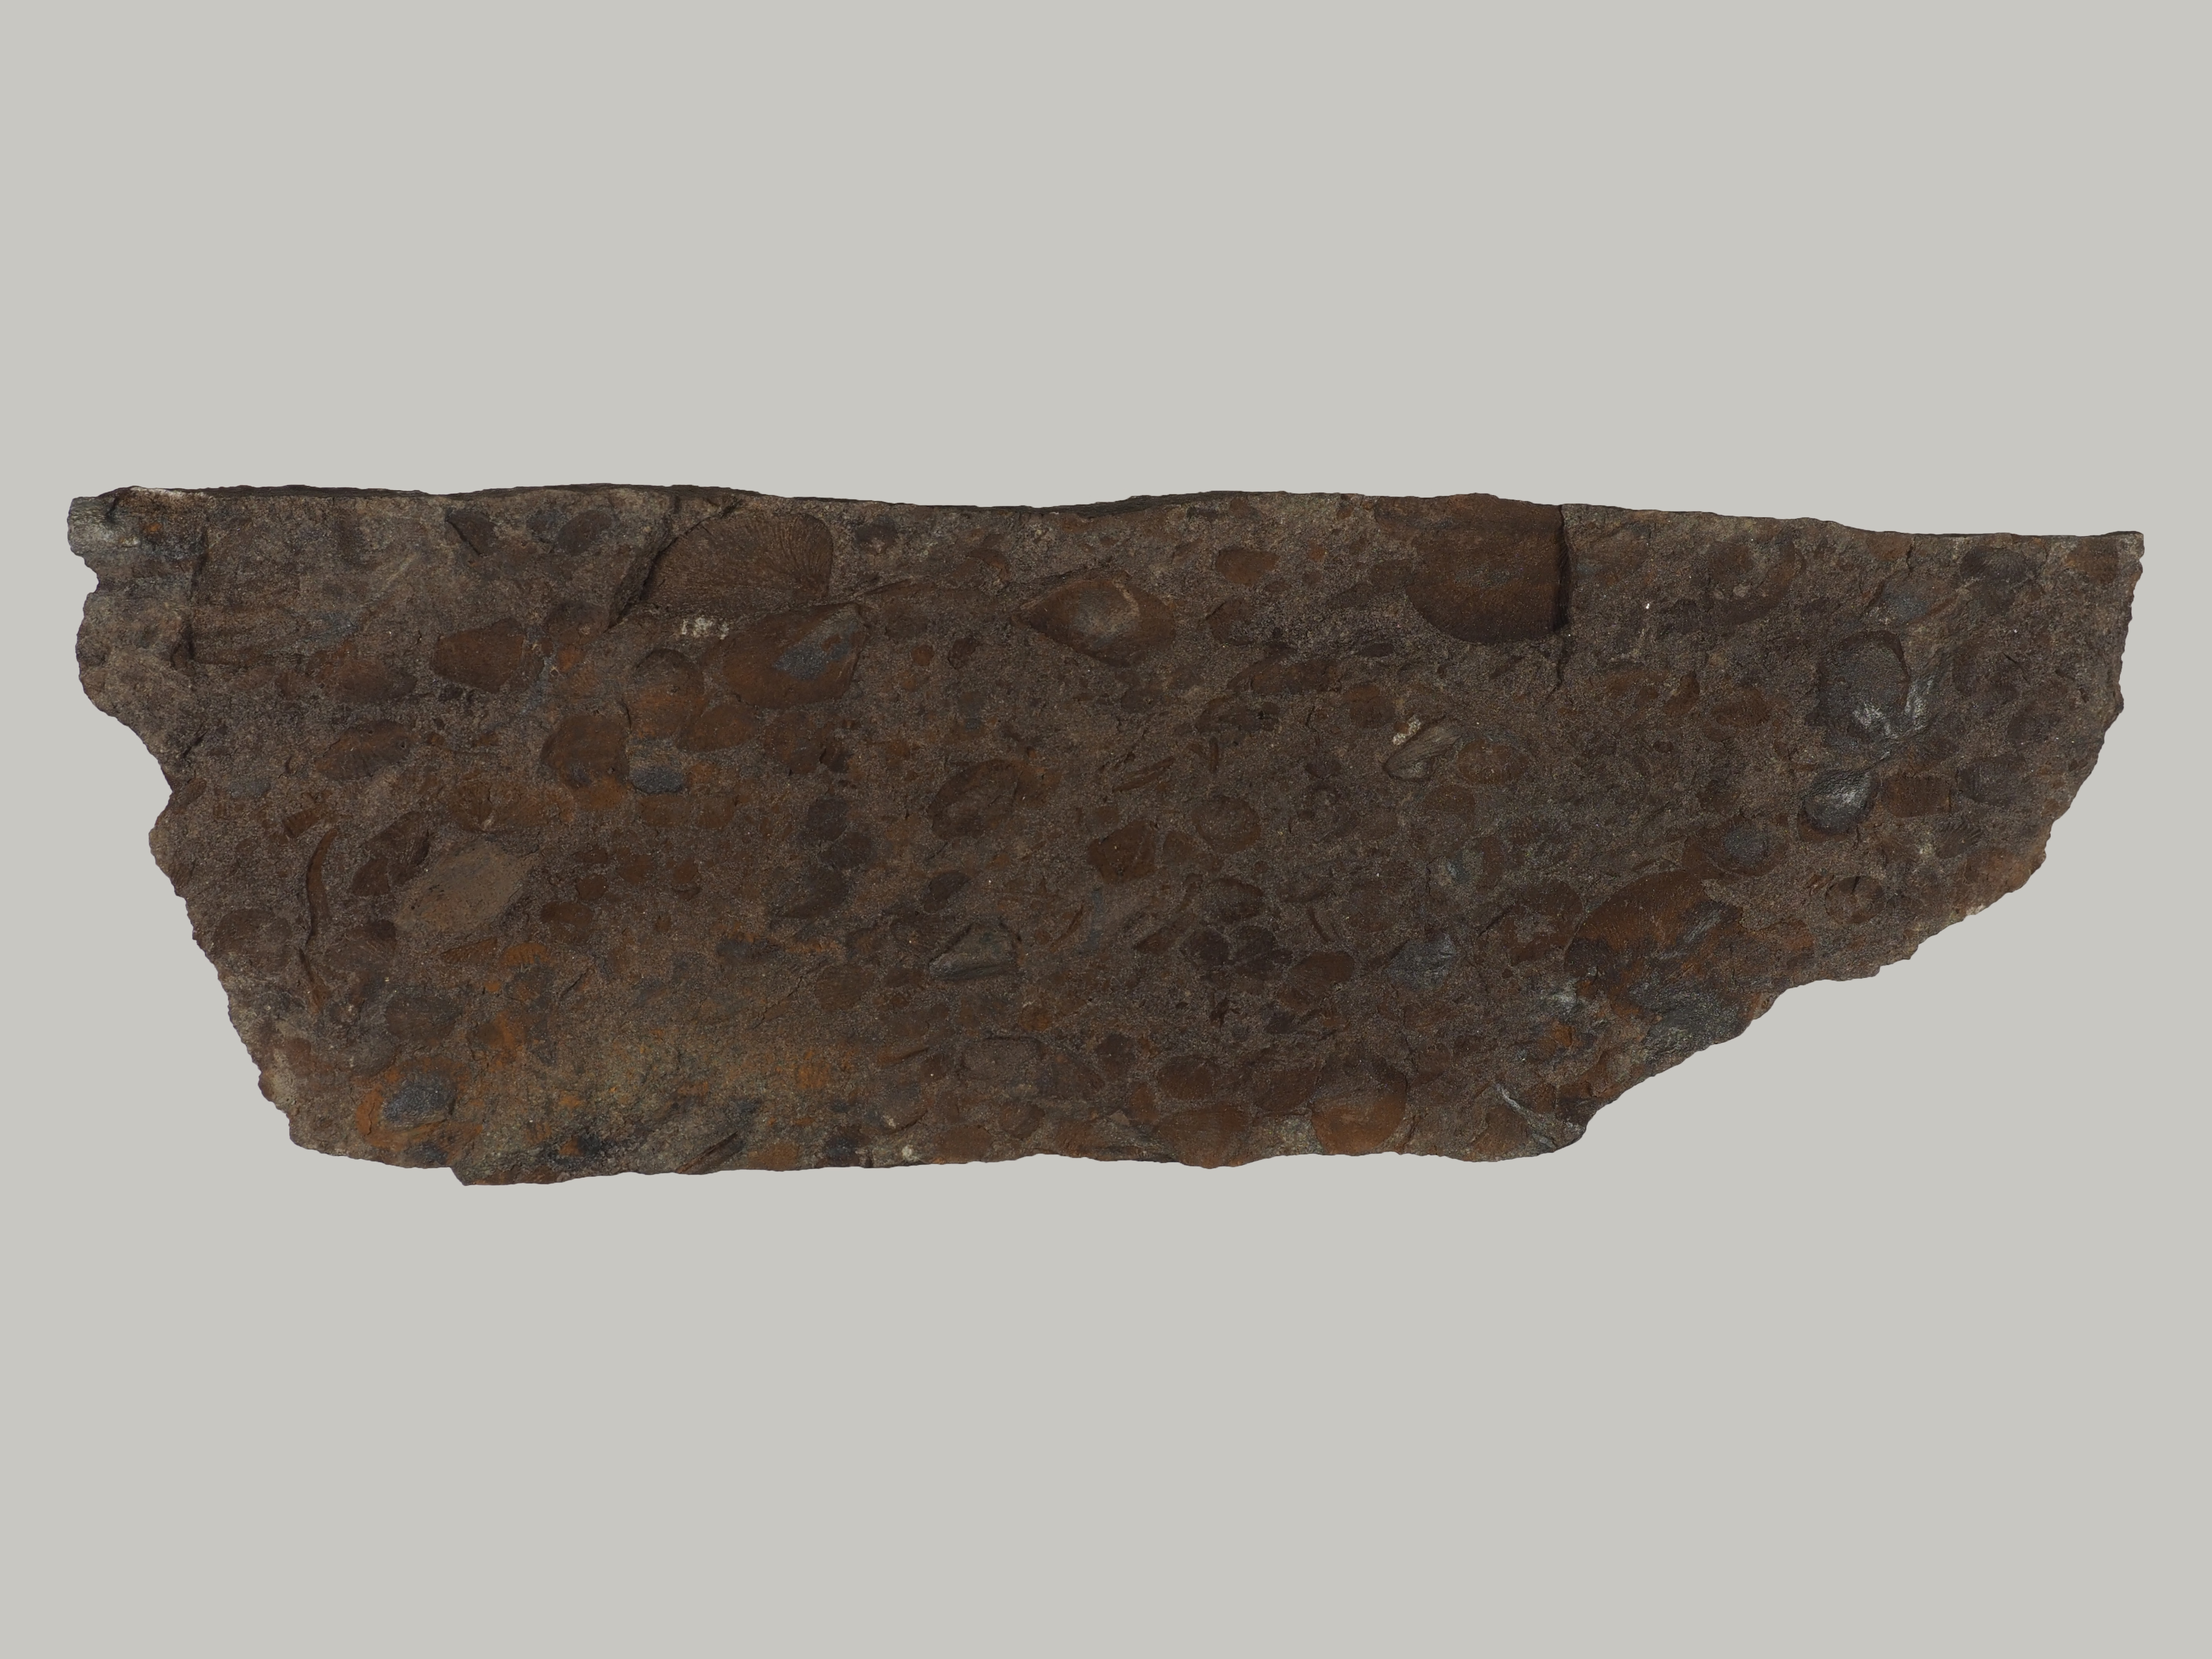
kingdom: Animalia
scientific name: Animalia
